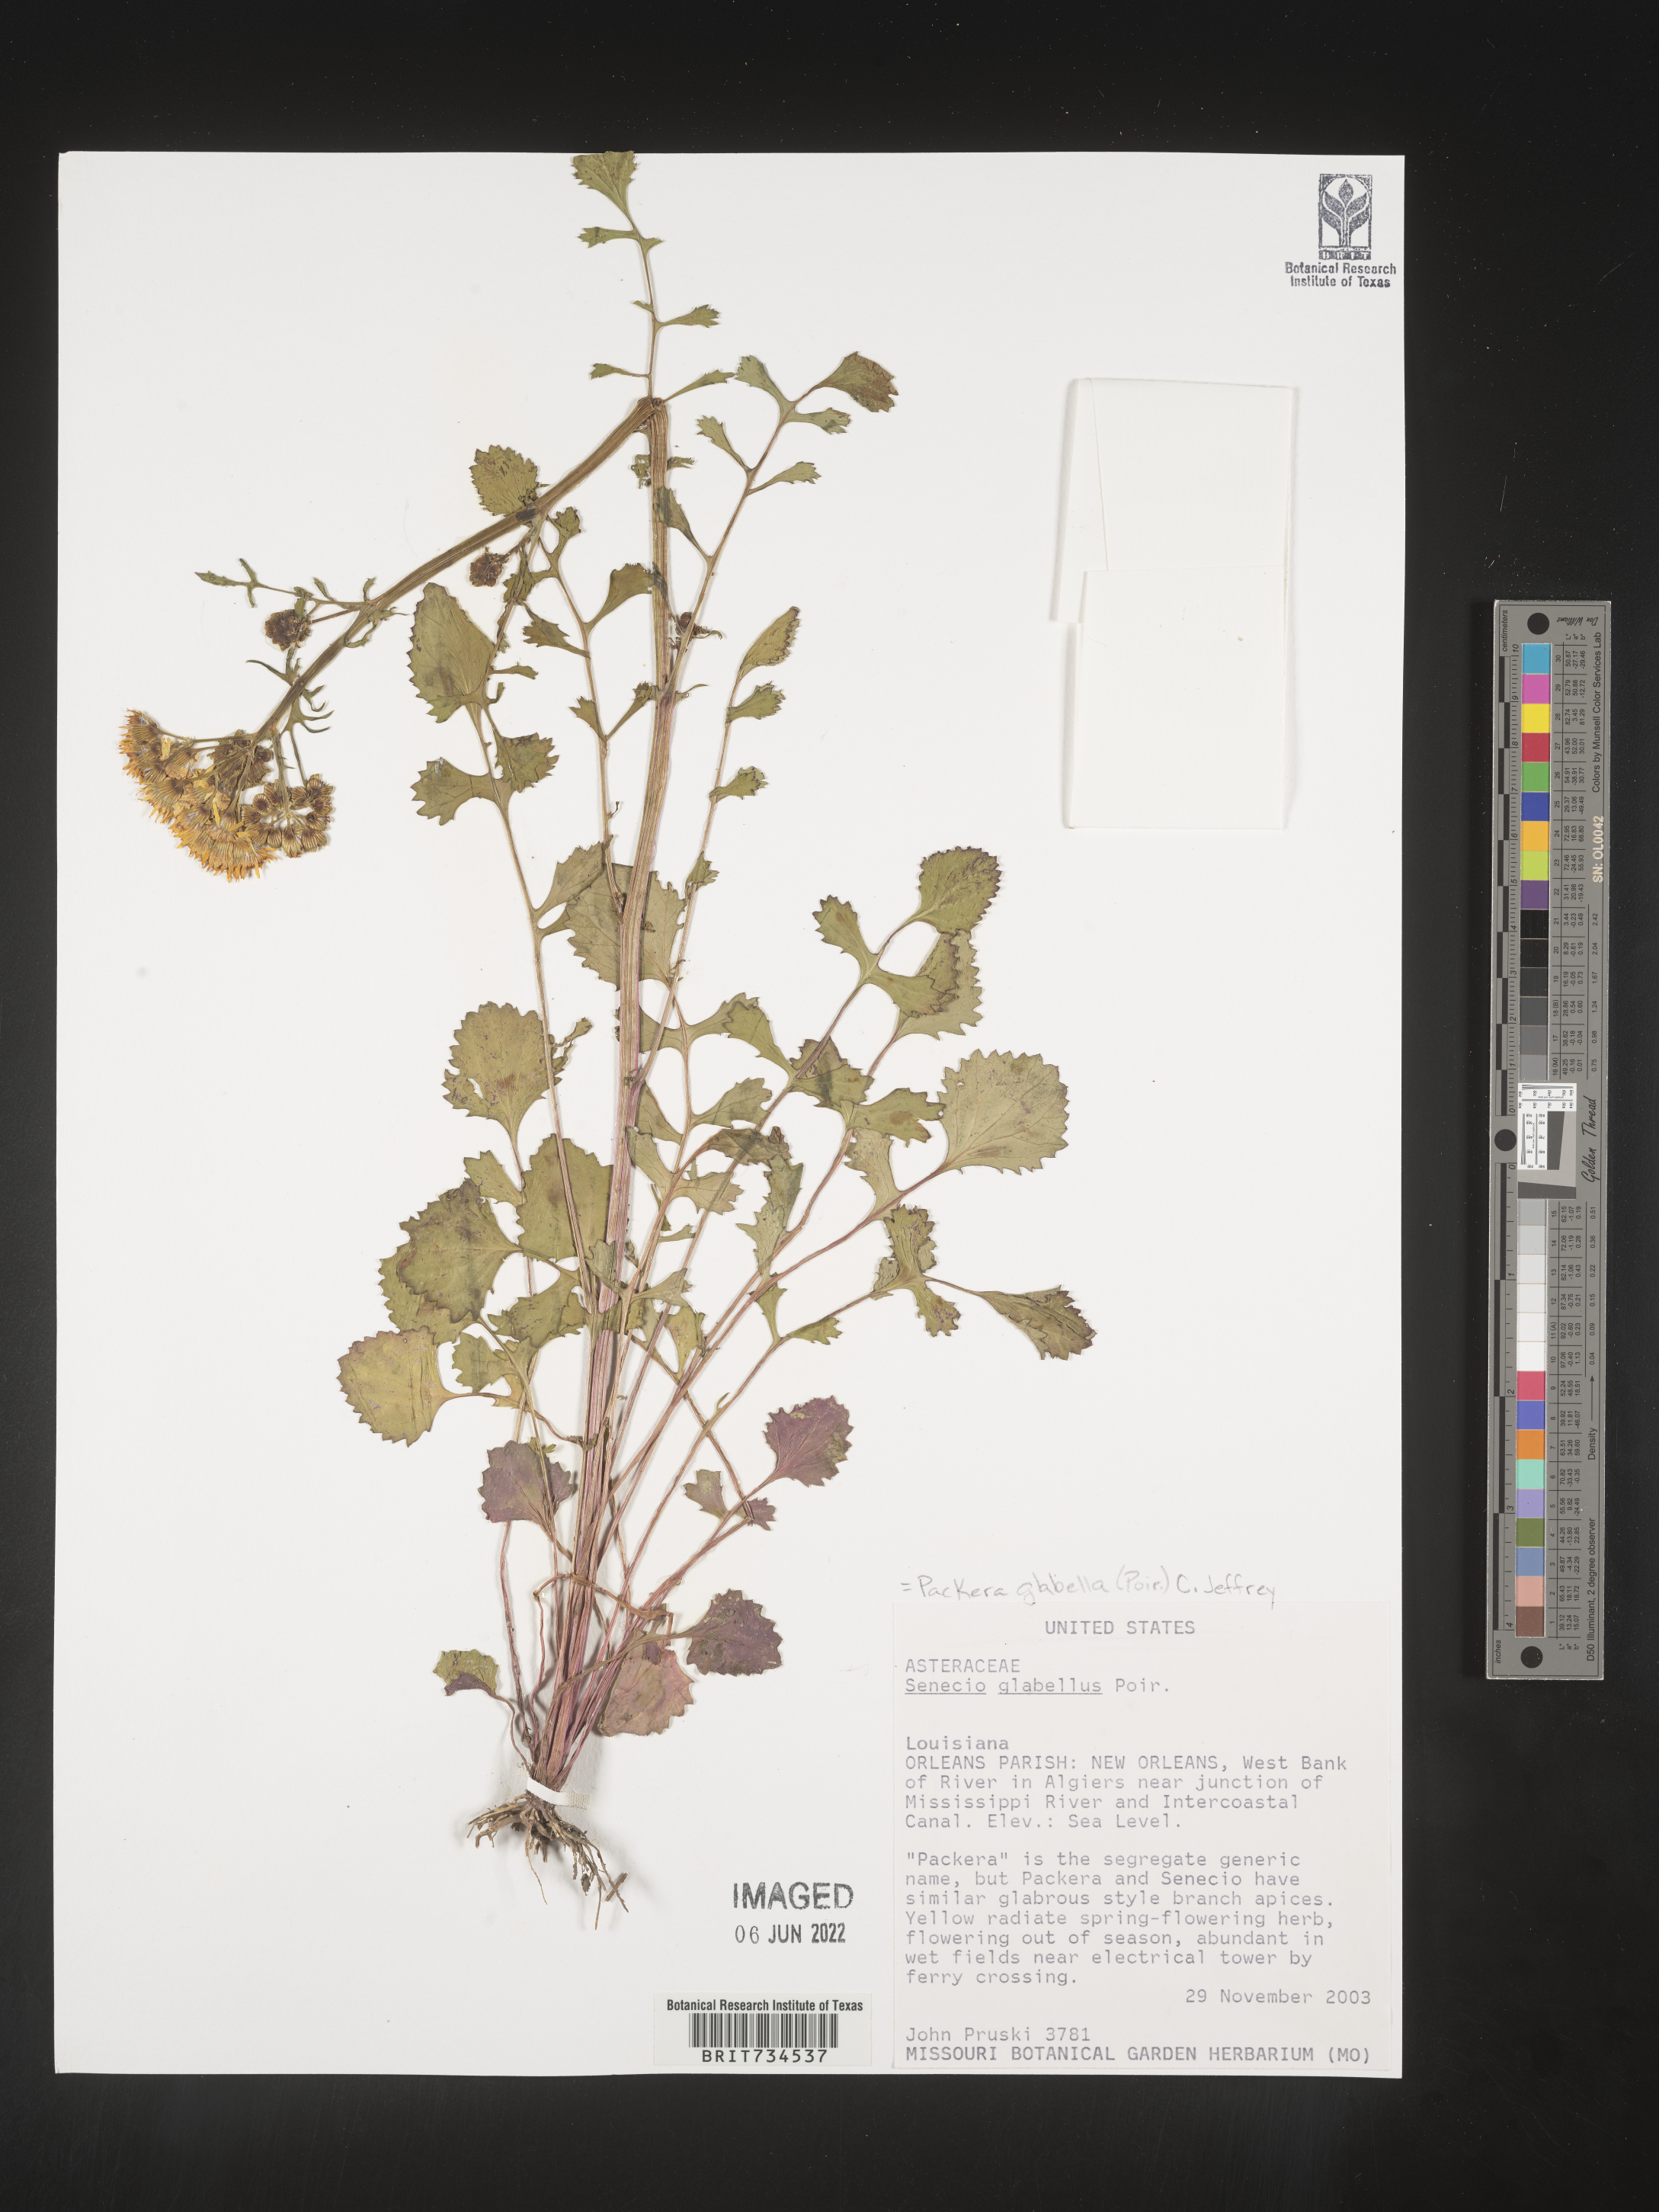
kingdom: Plantae
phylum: Tracheophyta
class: Magnoliopsida
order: Asterales
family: Asteraceae
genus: Packera
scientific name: Packera glabella
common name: Butterweed
